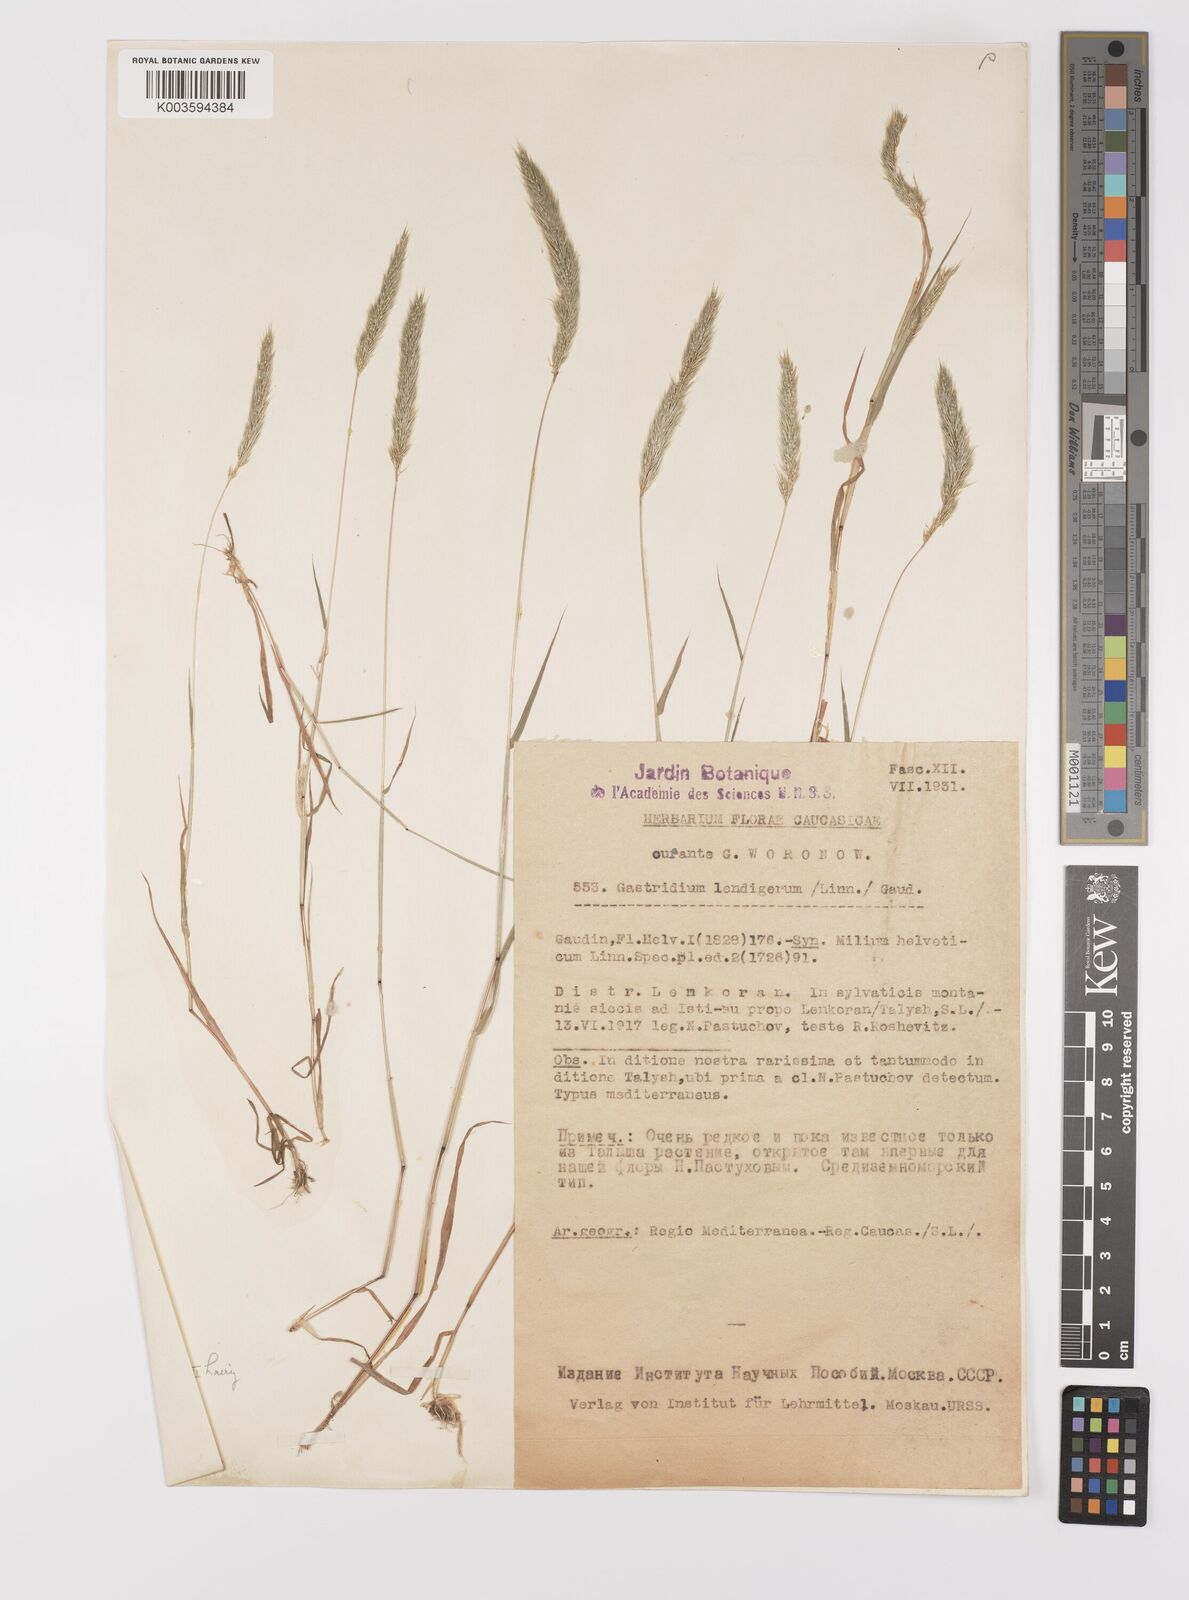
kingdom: Plantae
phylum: Tracheophyta
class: Liliopsida
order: Poales
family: Poaceae
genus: Gastridium
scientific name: Gastridium phleoides
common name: Nit grass
